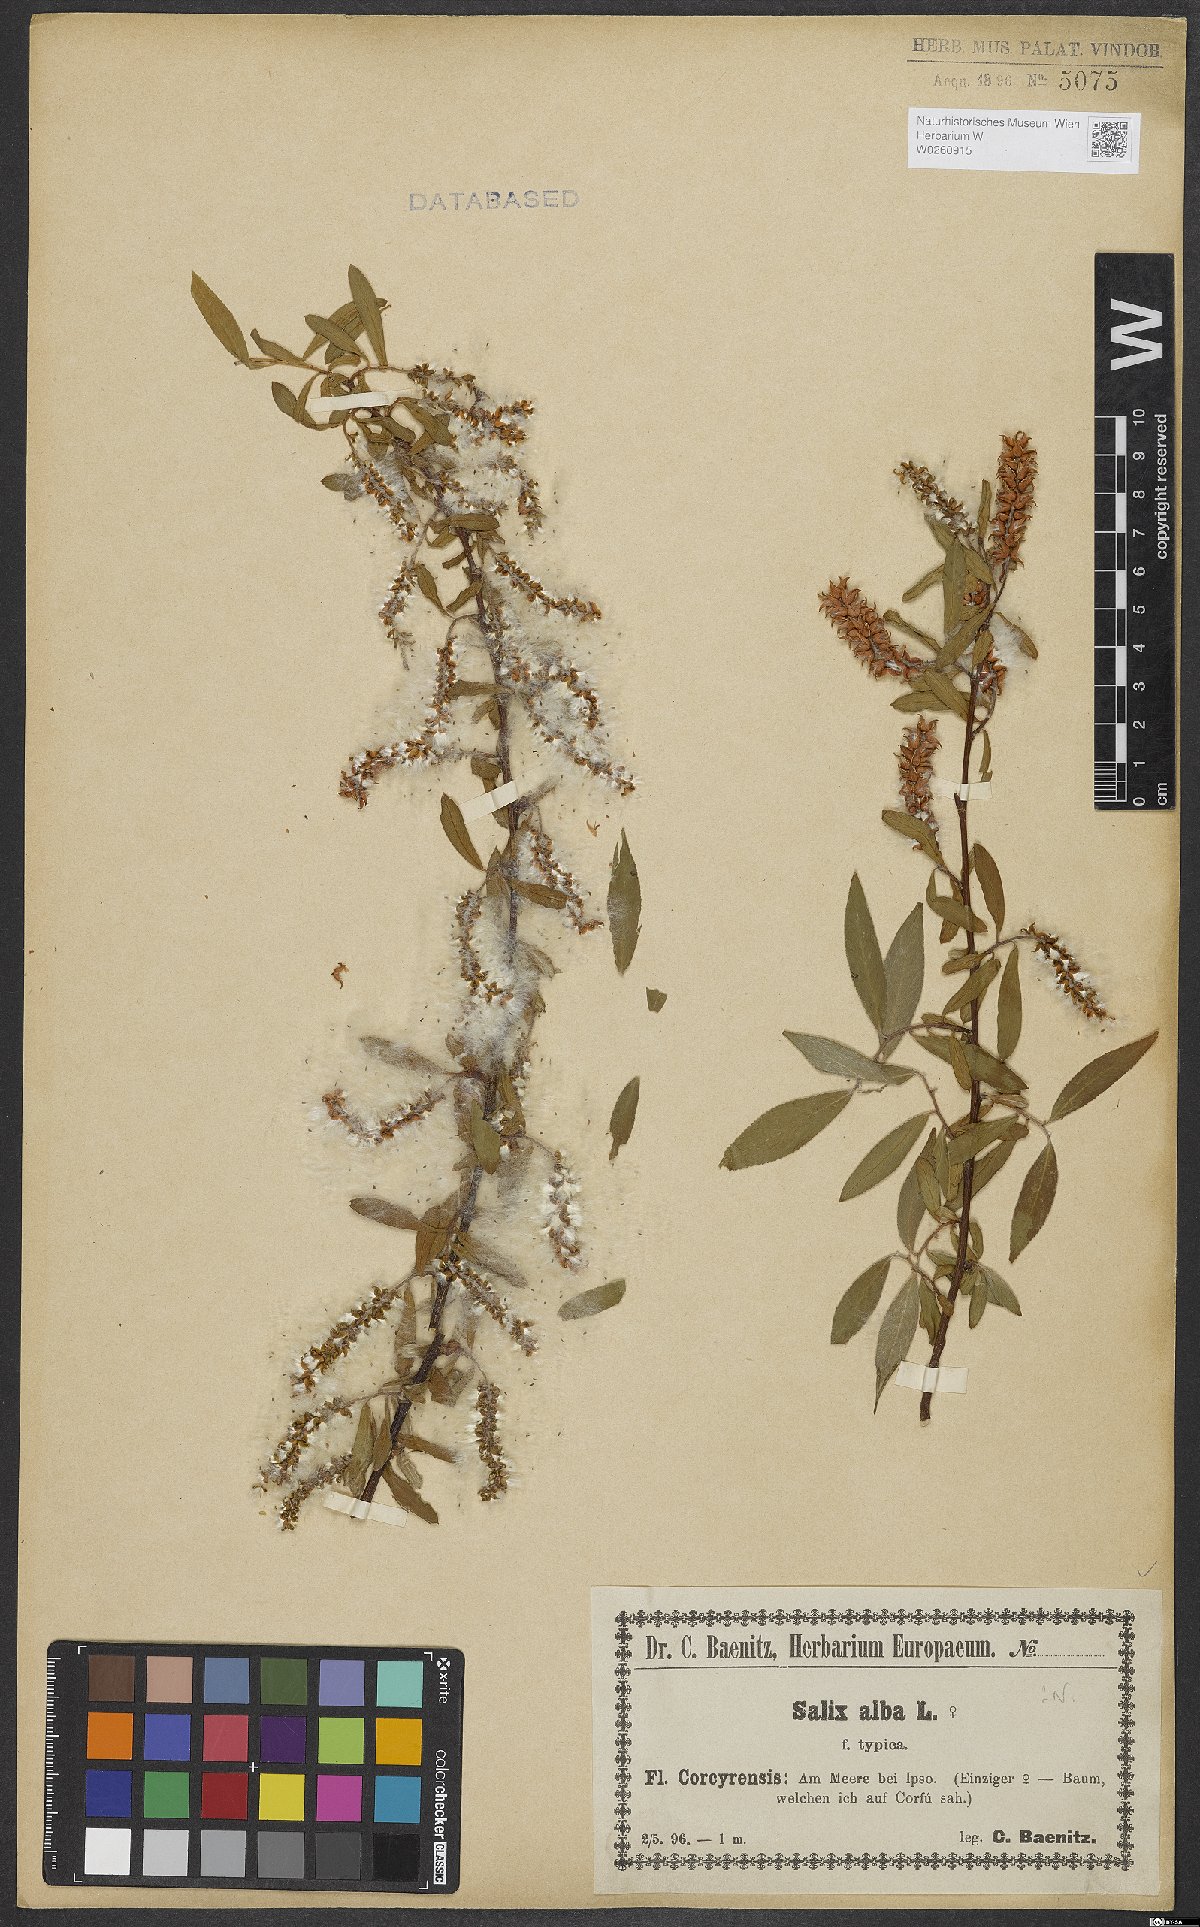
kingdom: Plantae
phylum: Tracheophyta
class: Magnoliopsida
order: Malpighiales
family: Salicaceae
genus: Salix
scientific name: Salix alba
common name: White willow
